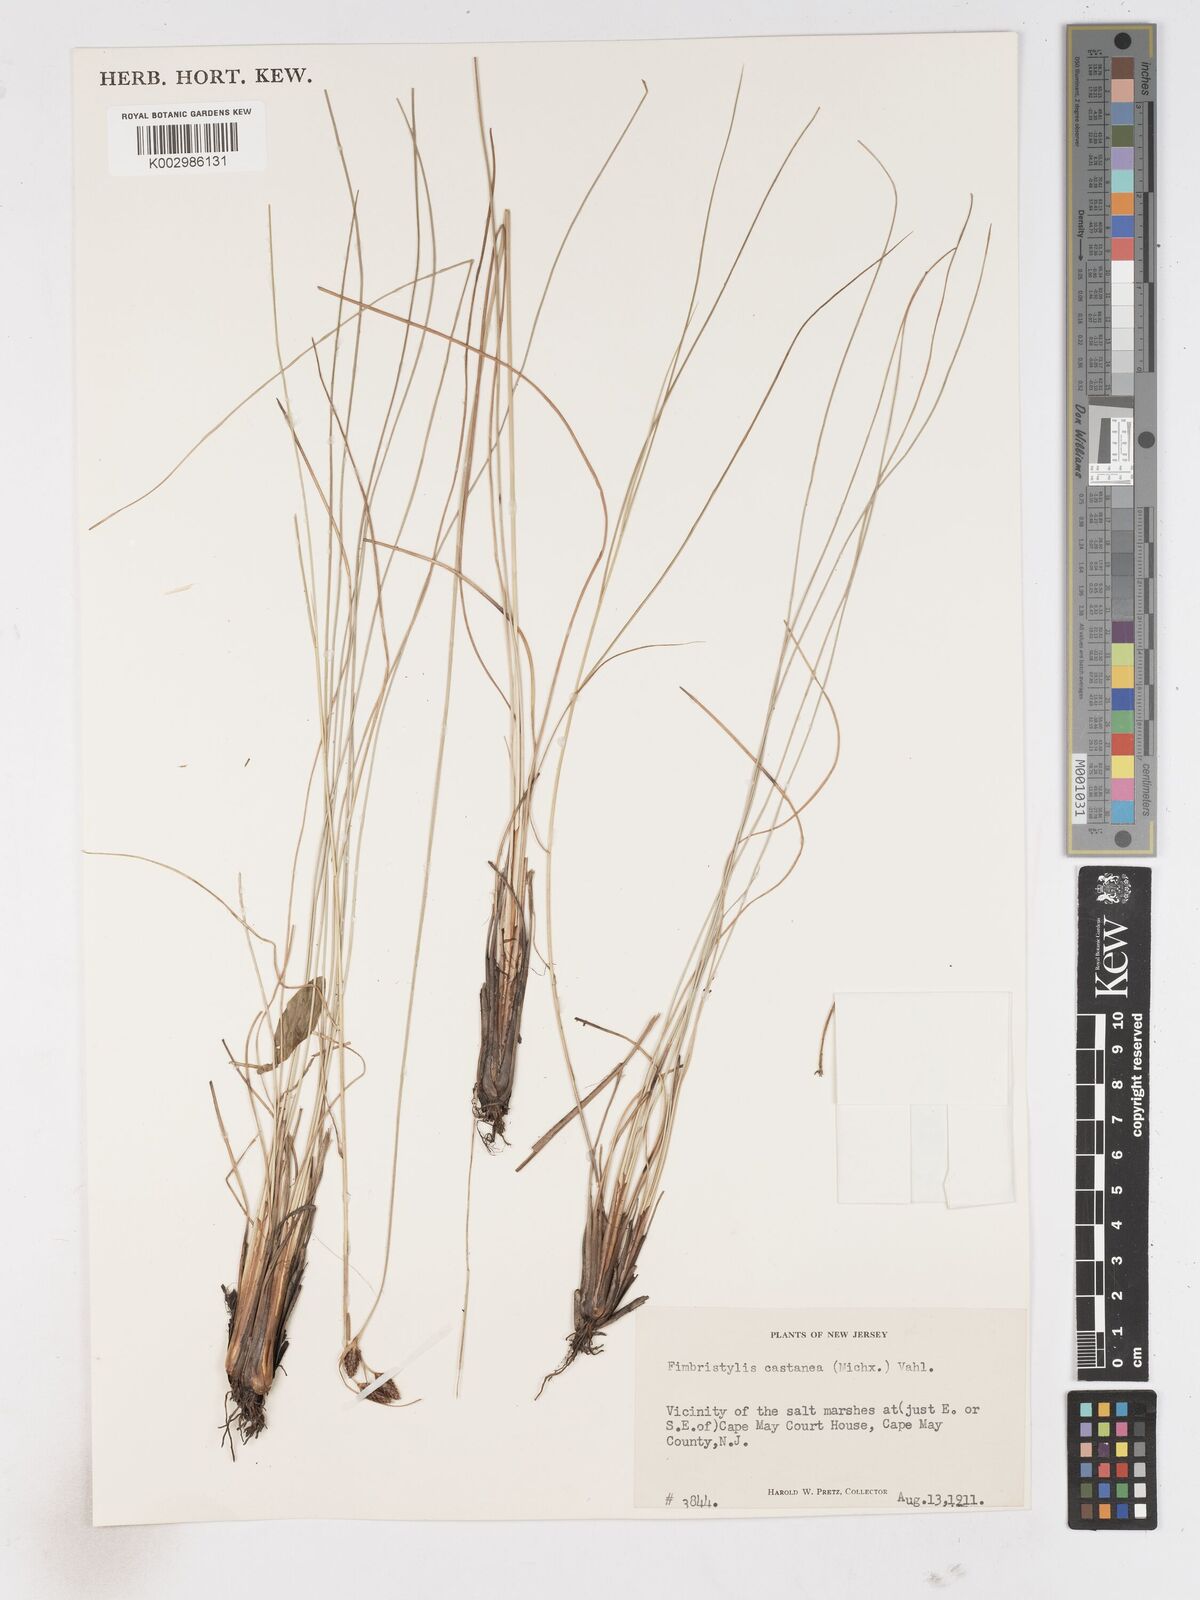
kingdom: Plantae
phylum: Tracheophyta
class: Liliopsida
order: Poales
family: Cyperaceae
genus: Fimbristylis
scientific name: Fimbristylis spadicea
